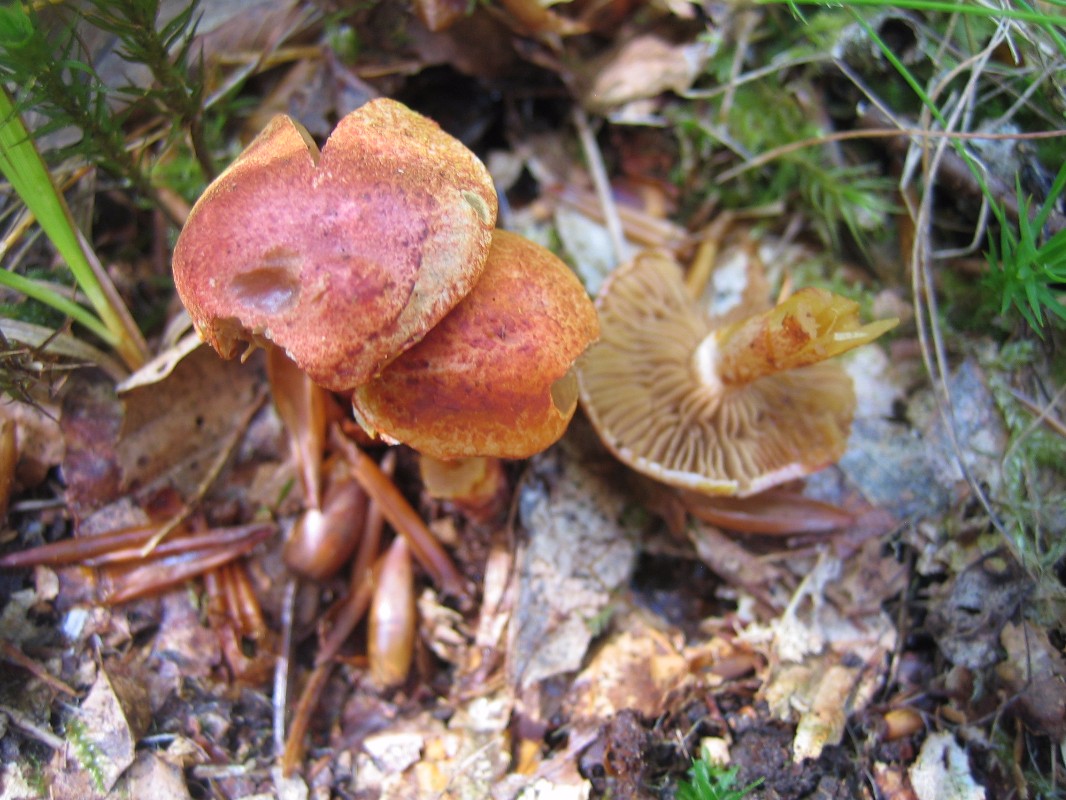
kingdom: Fungi
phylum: Basidiomycota
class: Agaricomycetes
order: Agaricales
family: Cortinariaceae
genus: Cortinarius
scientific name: Cortinarius bolaris
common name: cinnoberskællet slørhat
